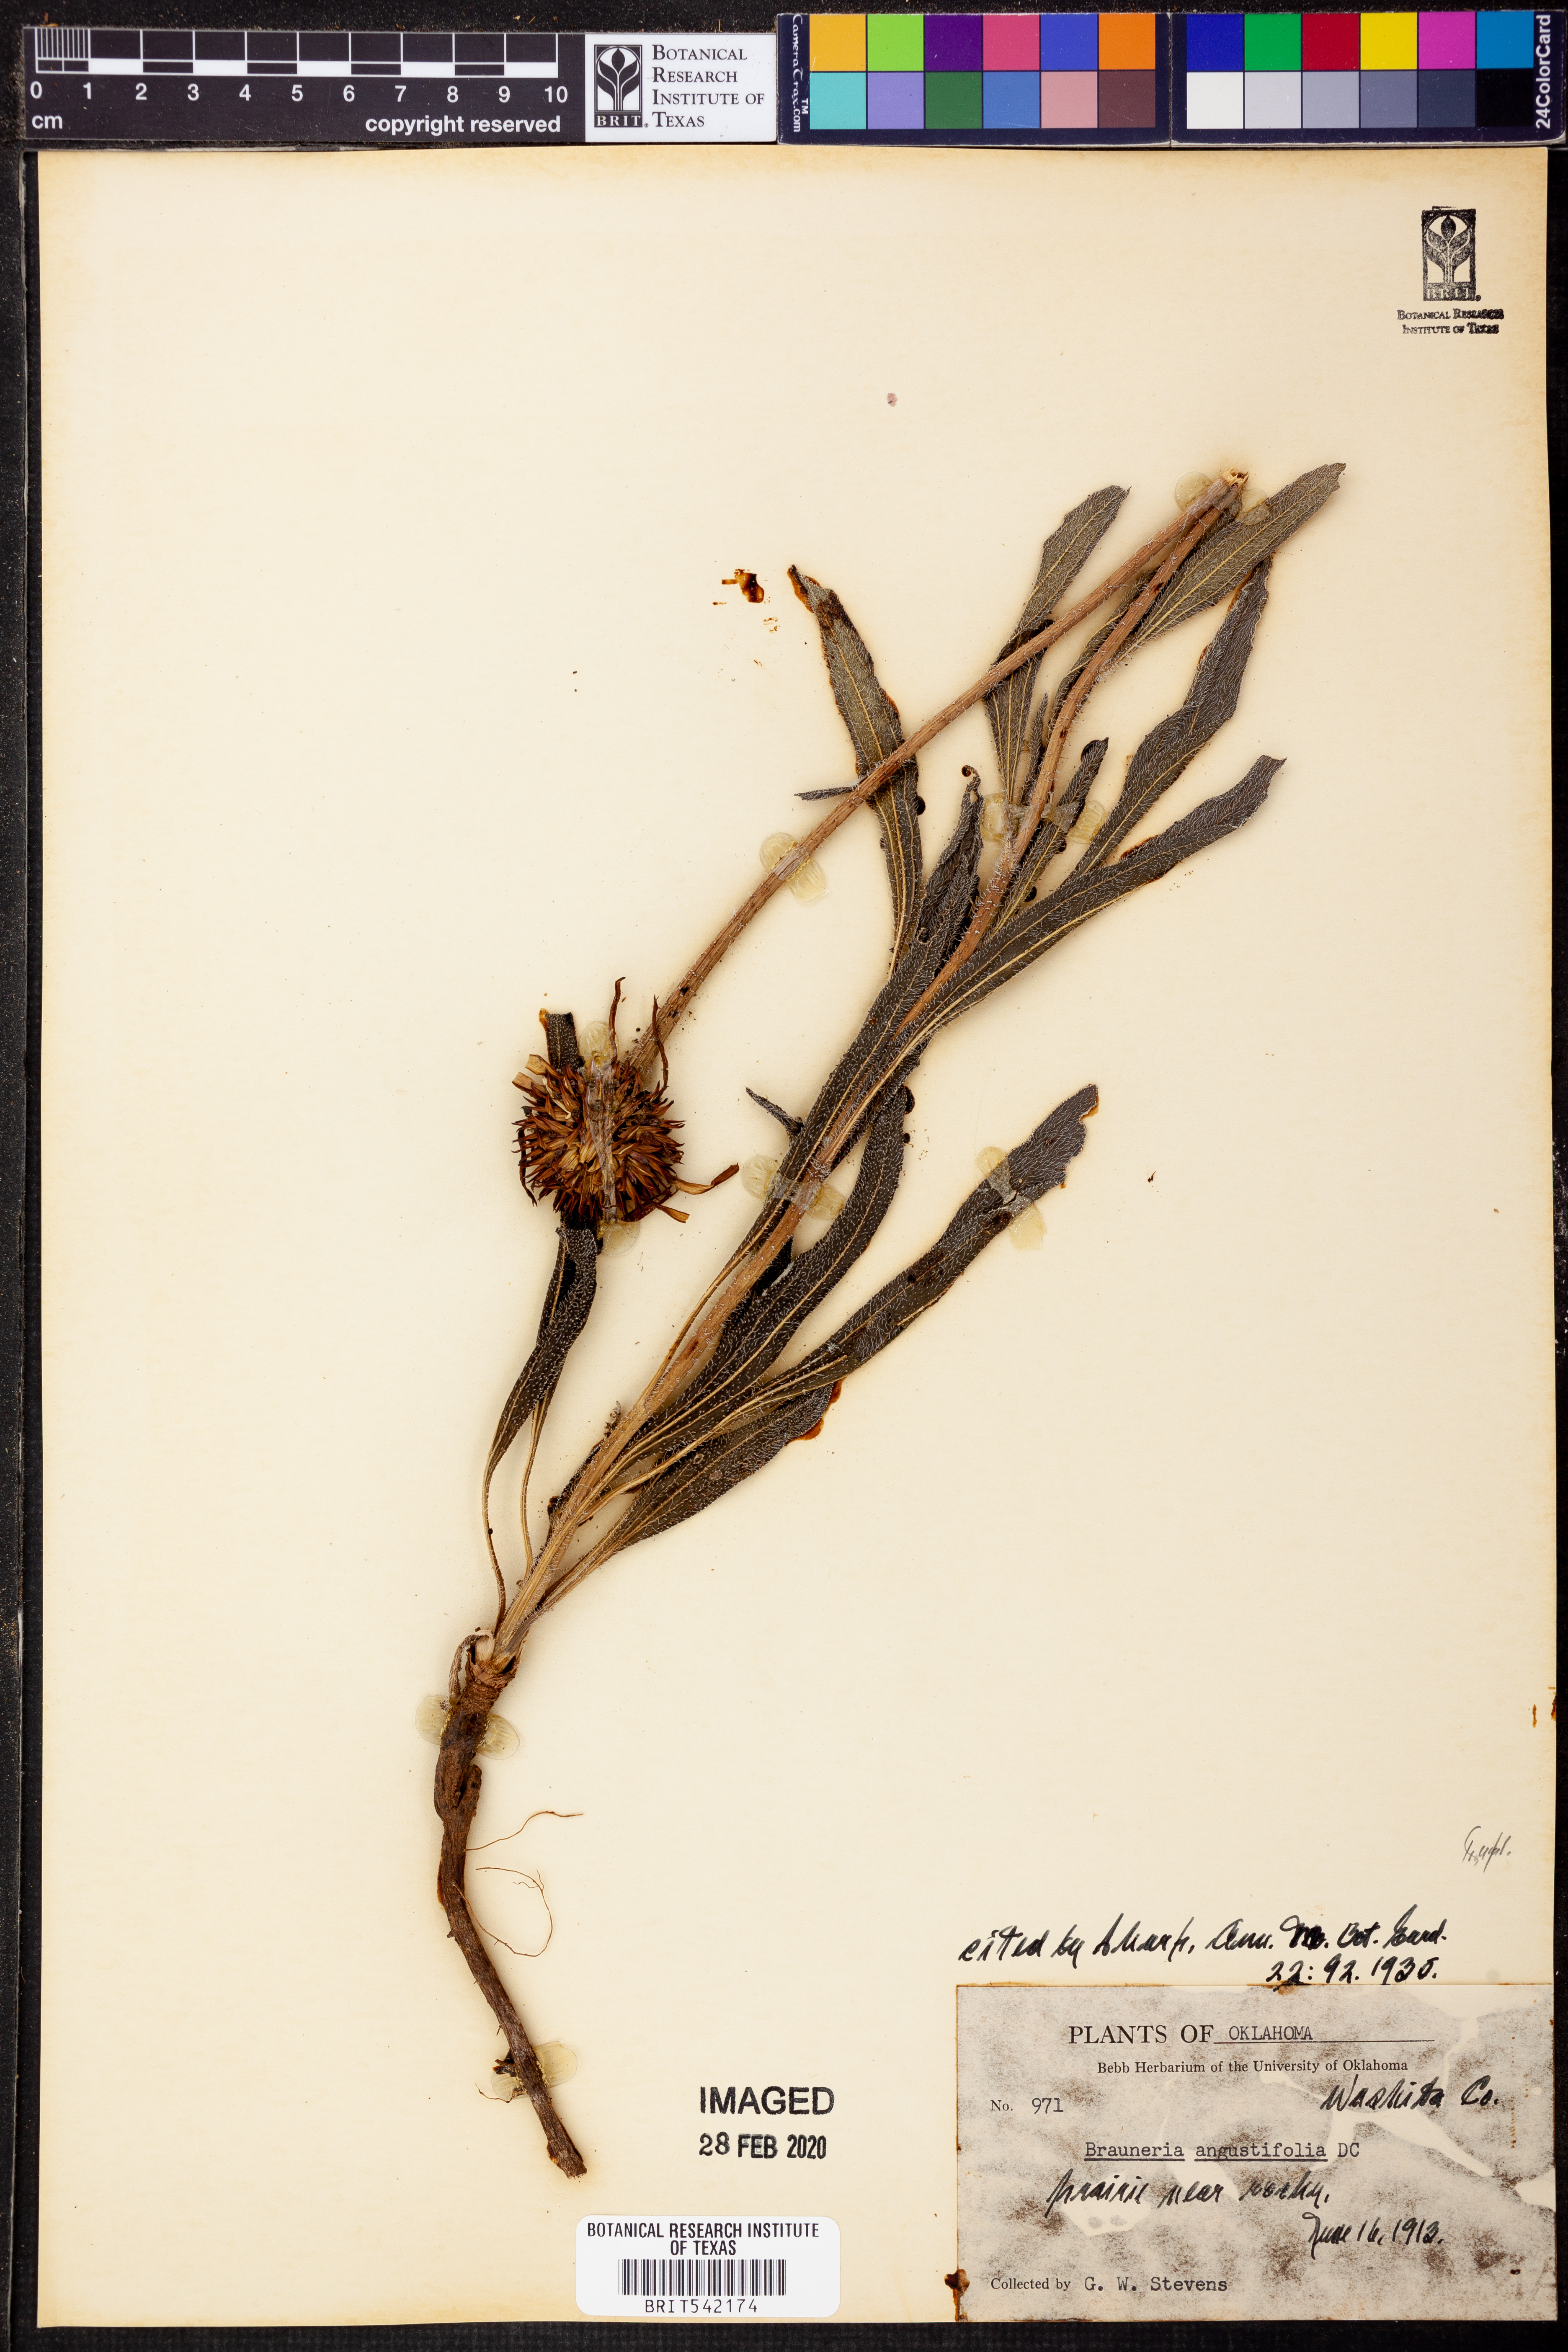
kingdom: Plantae
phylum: Tracheophyta
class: Magnoliopsida
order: Asterales
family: Asteraceae
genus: Echinacea
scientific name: Echinacea angustifolia
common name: Black-sampson echinacea
